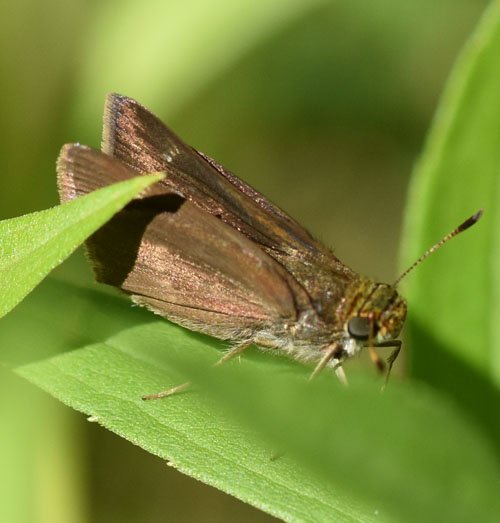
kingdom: Animalia
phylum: Arthropoda
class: Insecta
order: Lepidoptera
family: Hesperiidae
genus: Euphyes
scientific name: Euphyes vestris
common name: Dun Skipper
